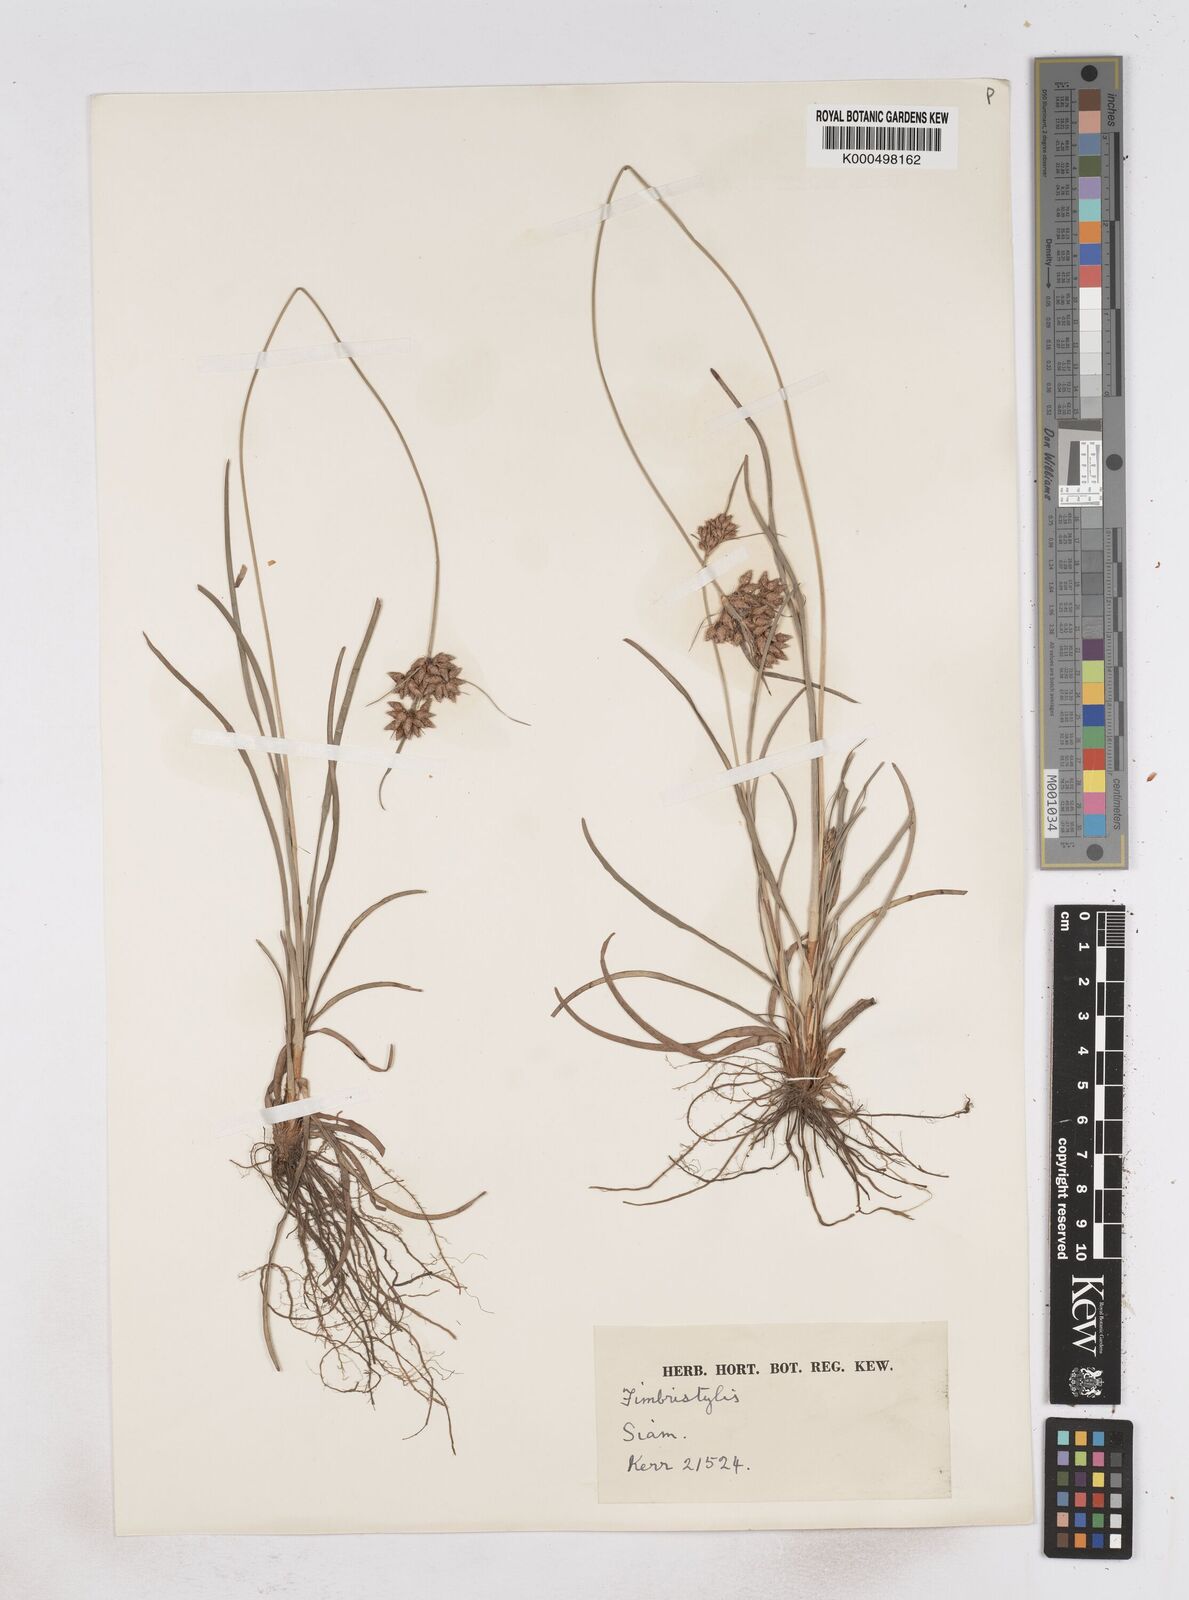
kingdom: Plantae
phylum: Tracheophyta
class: Liliopsida
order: Poales
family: Cyperaceae
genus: Fimbristylis
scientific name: Fimbristylis dichotoma
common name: Forked fimbry
